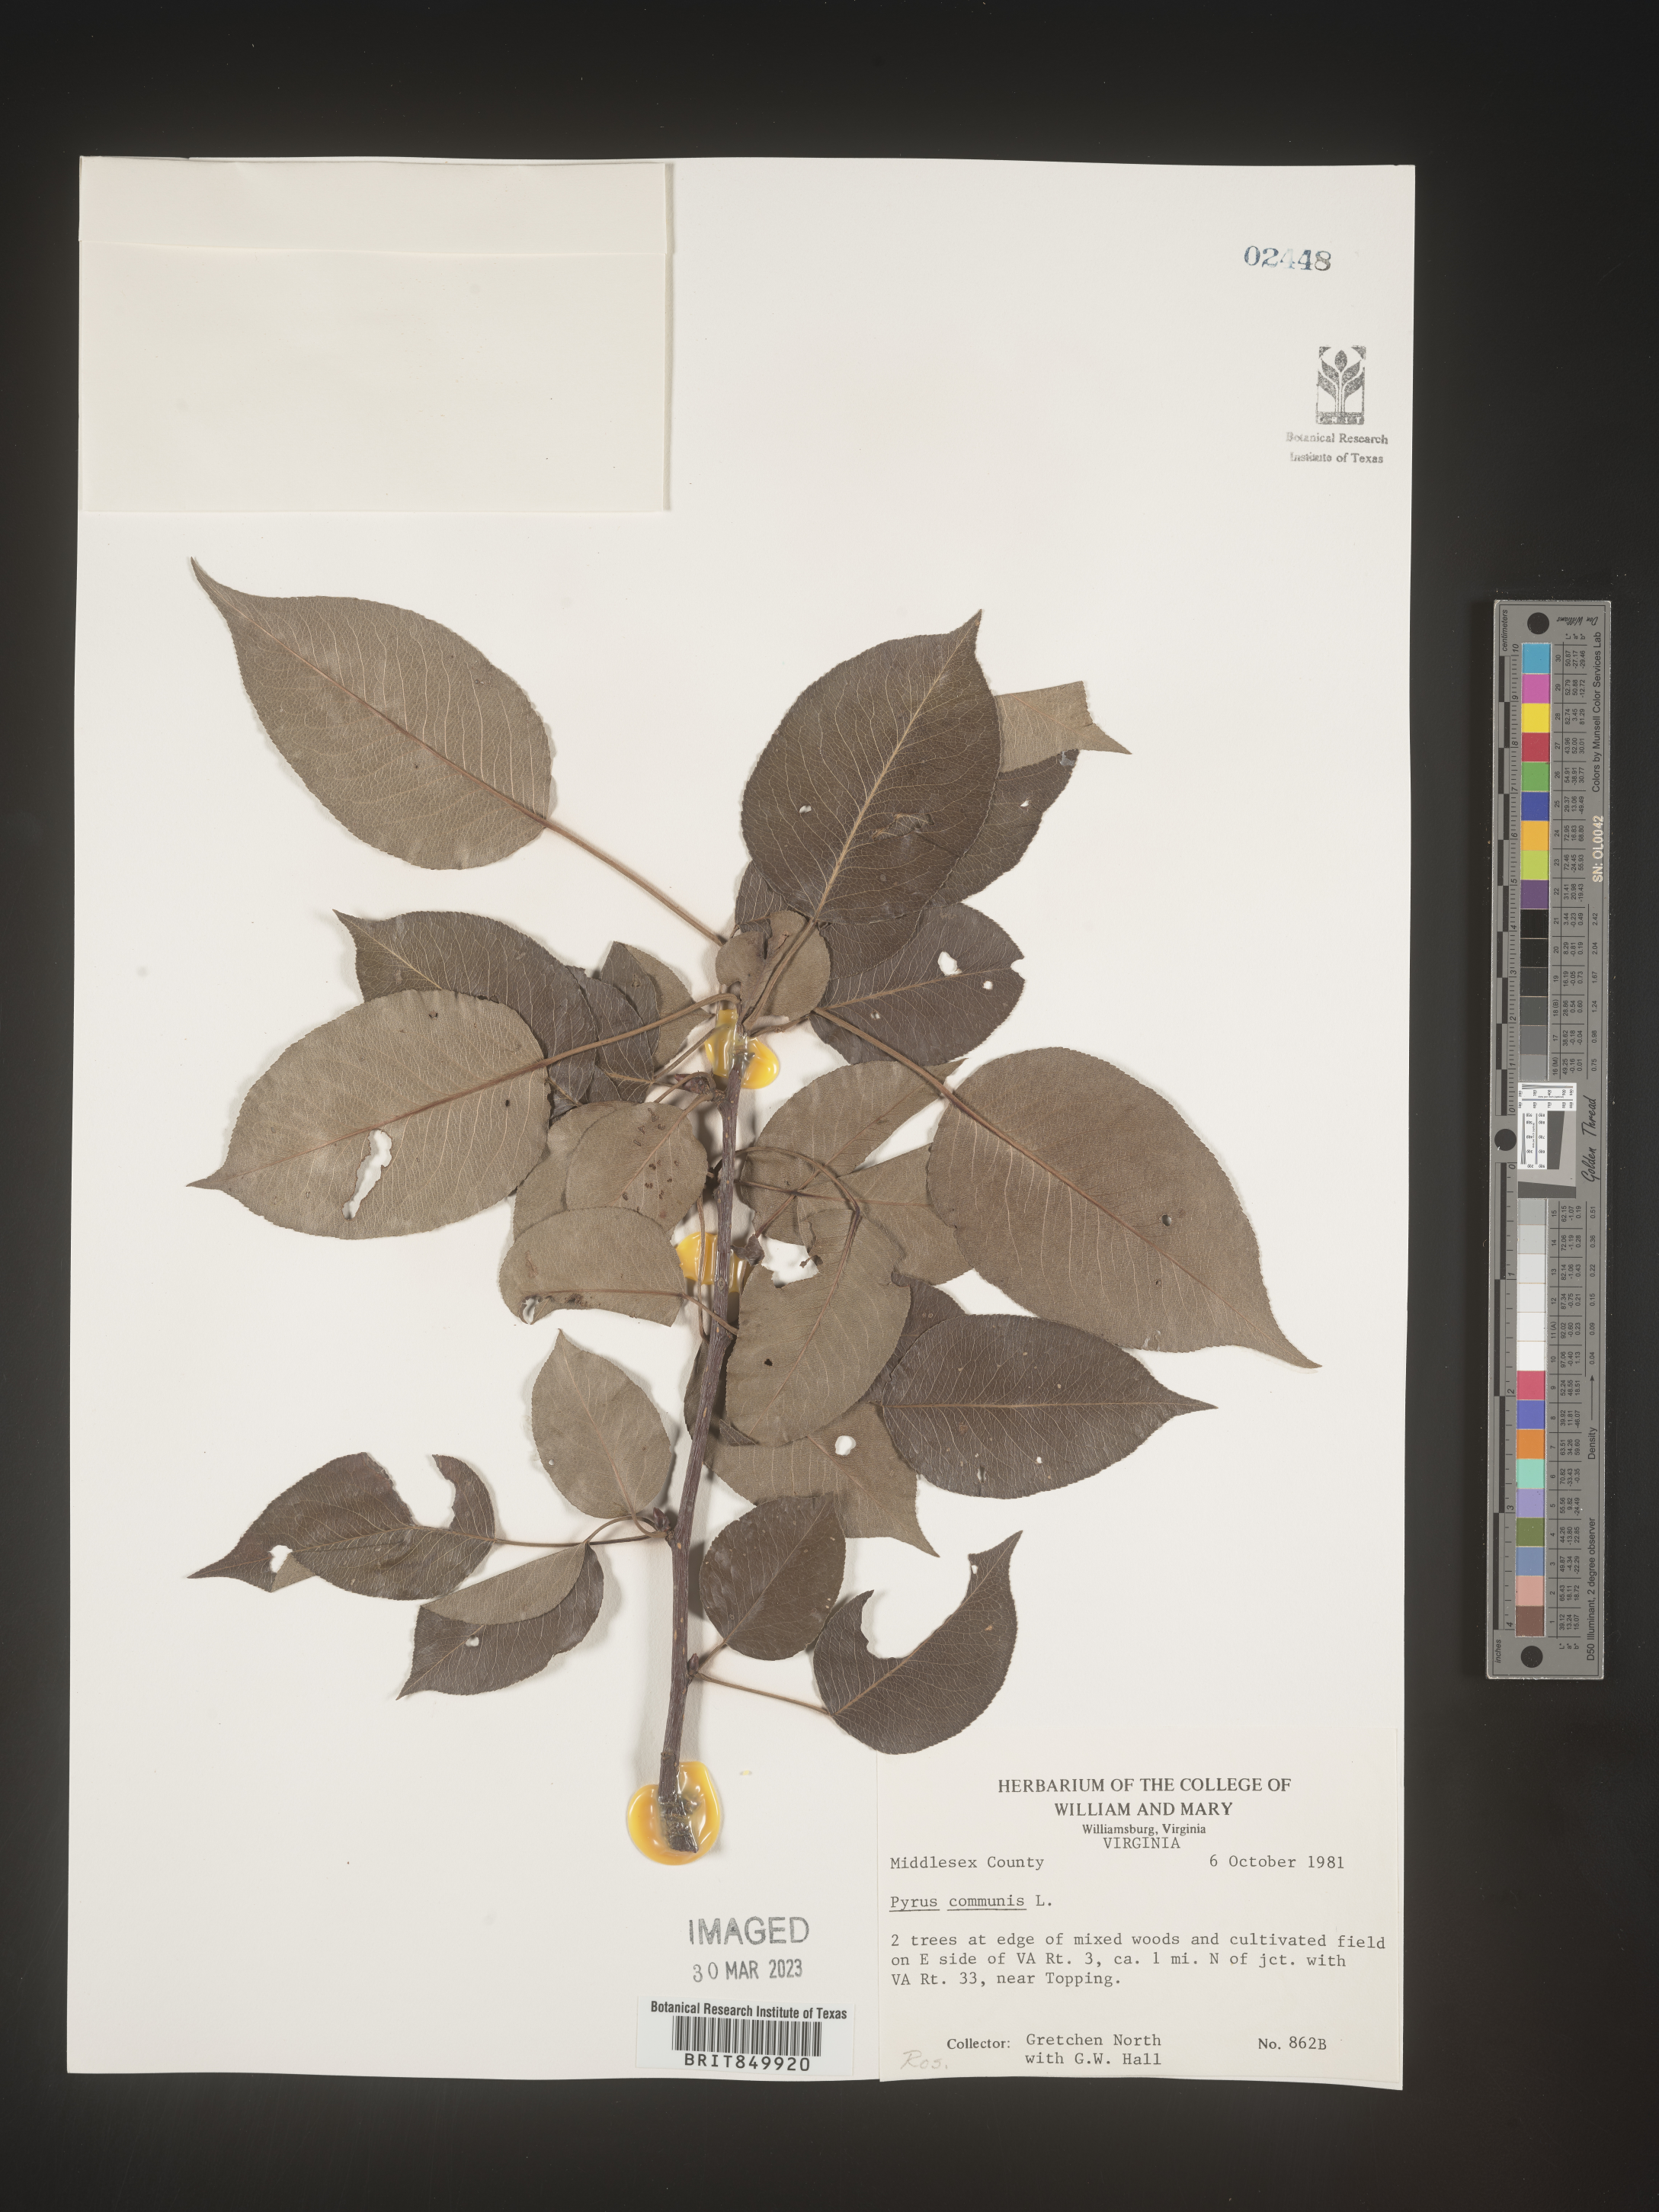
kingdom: Plantae
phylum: Tracheophyta
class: Magnoliopsida
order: Rosales
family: Rosaceae
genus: Pyrus
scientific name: Pyrus
